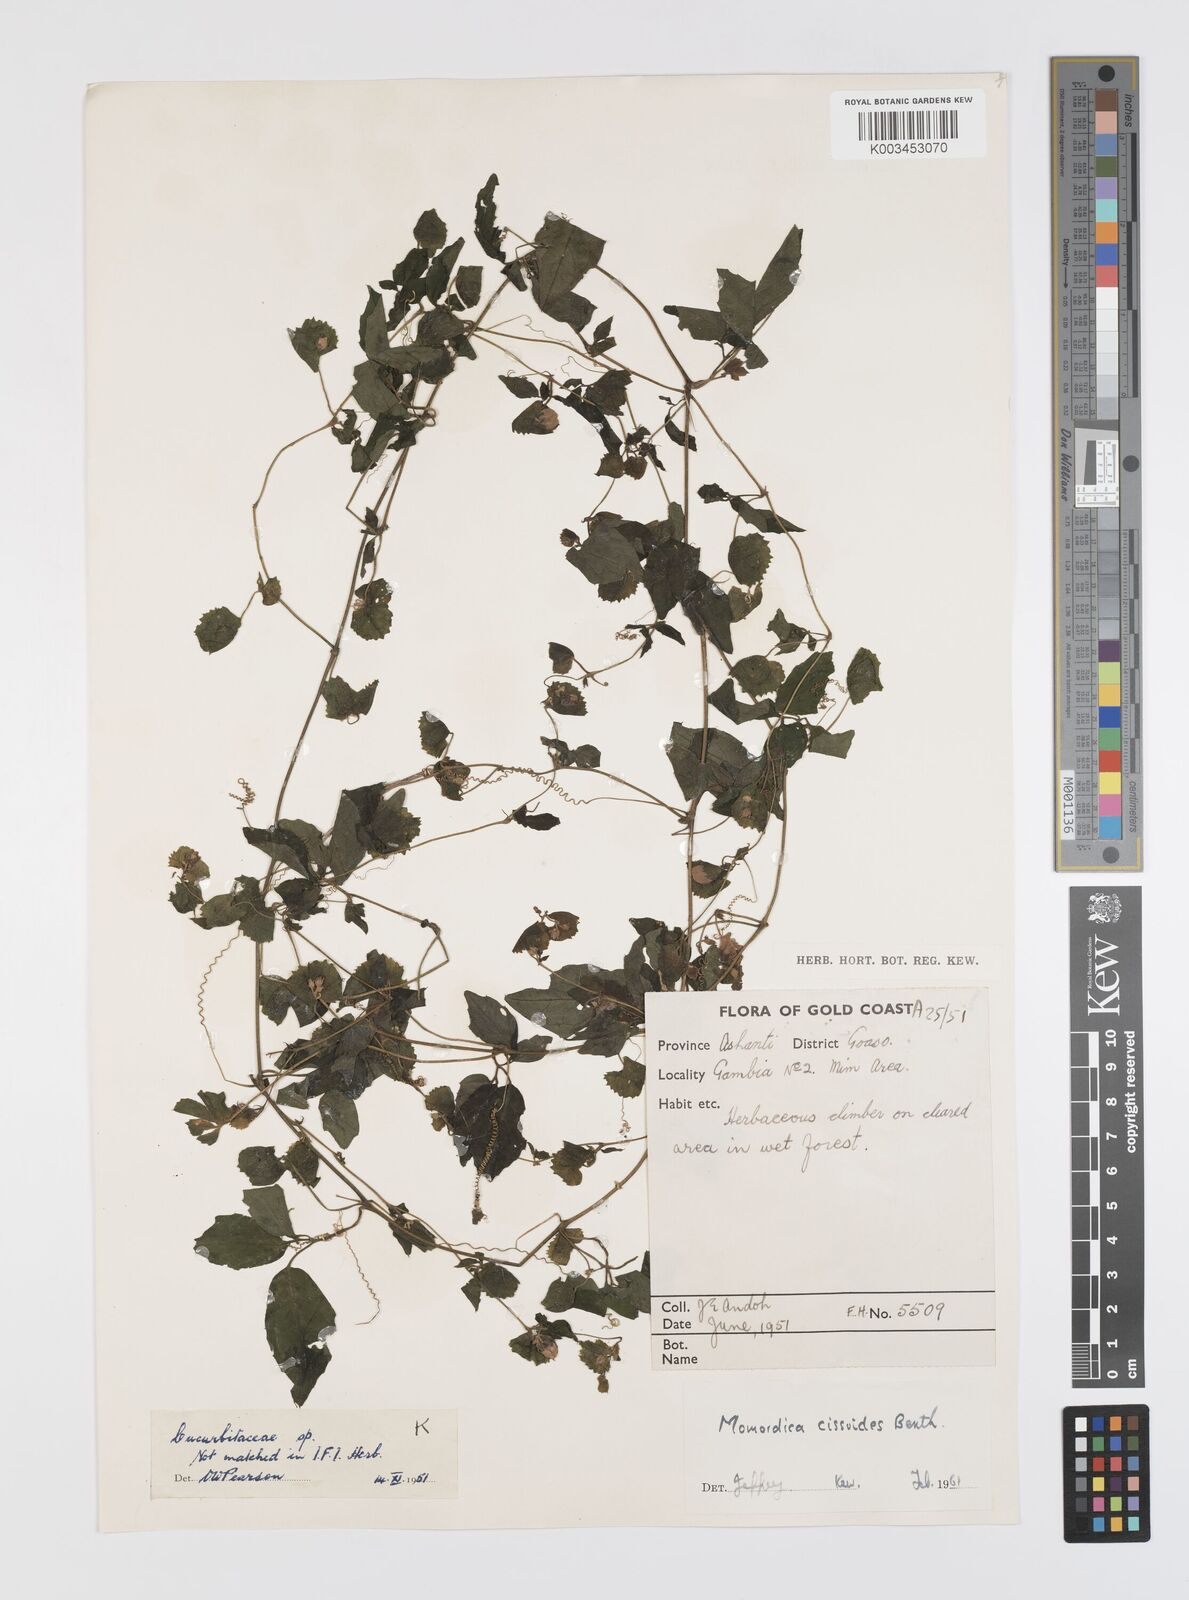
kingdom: Plantae
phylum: Tracheophyta
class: Magnoliopsida
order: Cucurbitales
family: Cucurbitaceae
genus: Momordica
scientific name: Momordica cissoides
